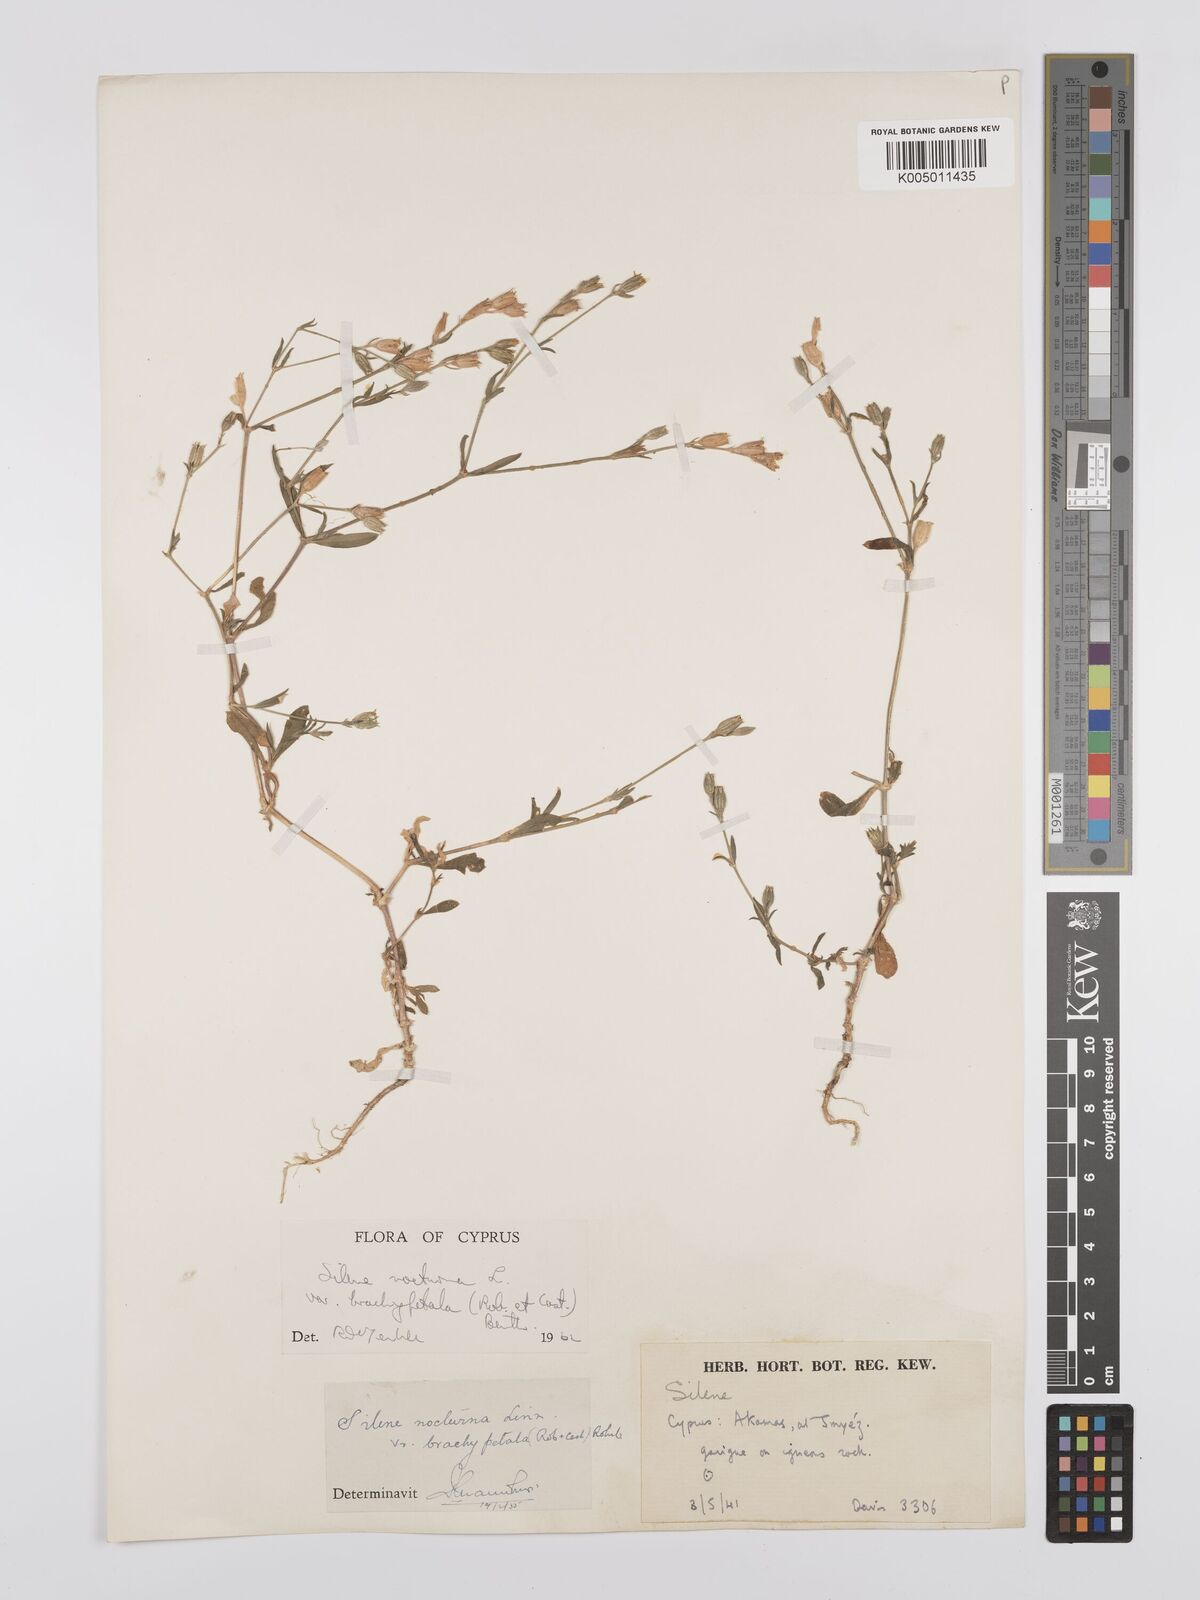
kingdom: Plantae
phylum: Tracheophyta
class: Magnoliopsida
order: Caryophyllales
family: Caryophyllaceae
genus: Silene
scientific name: Silene nocturna
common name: Mediterranean catchfly
